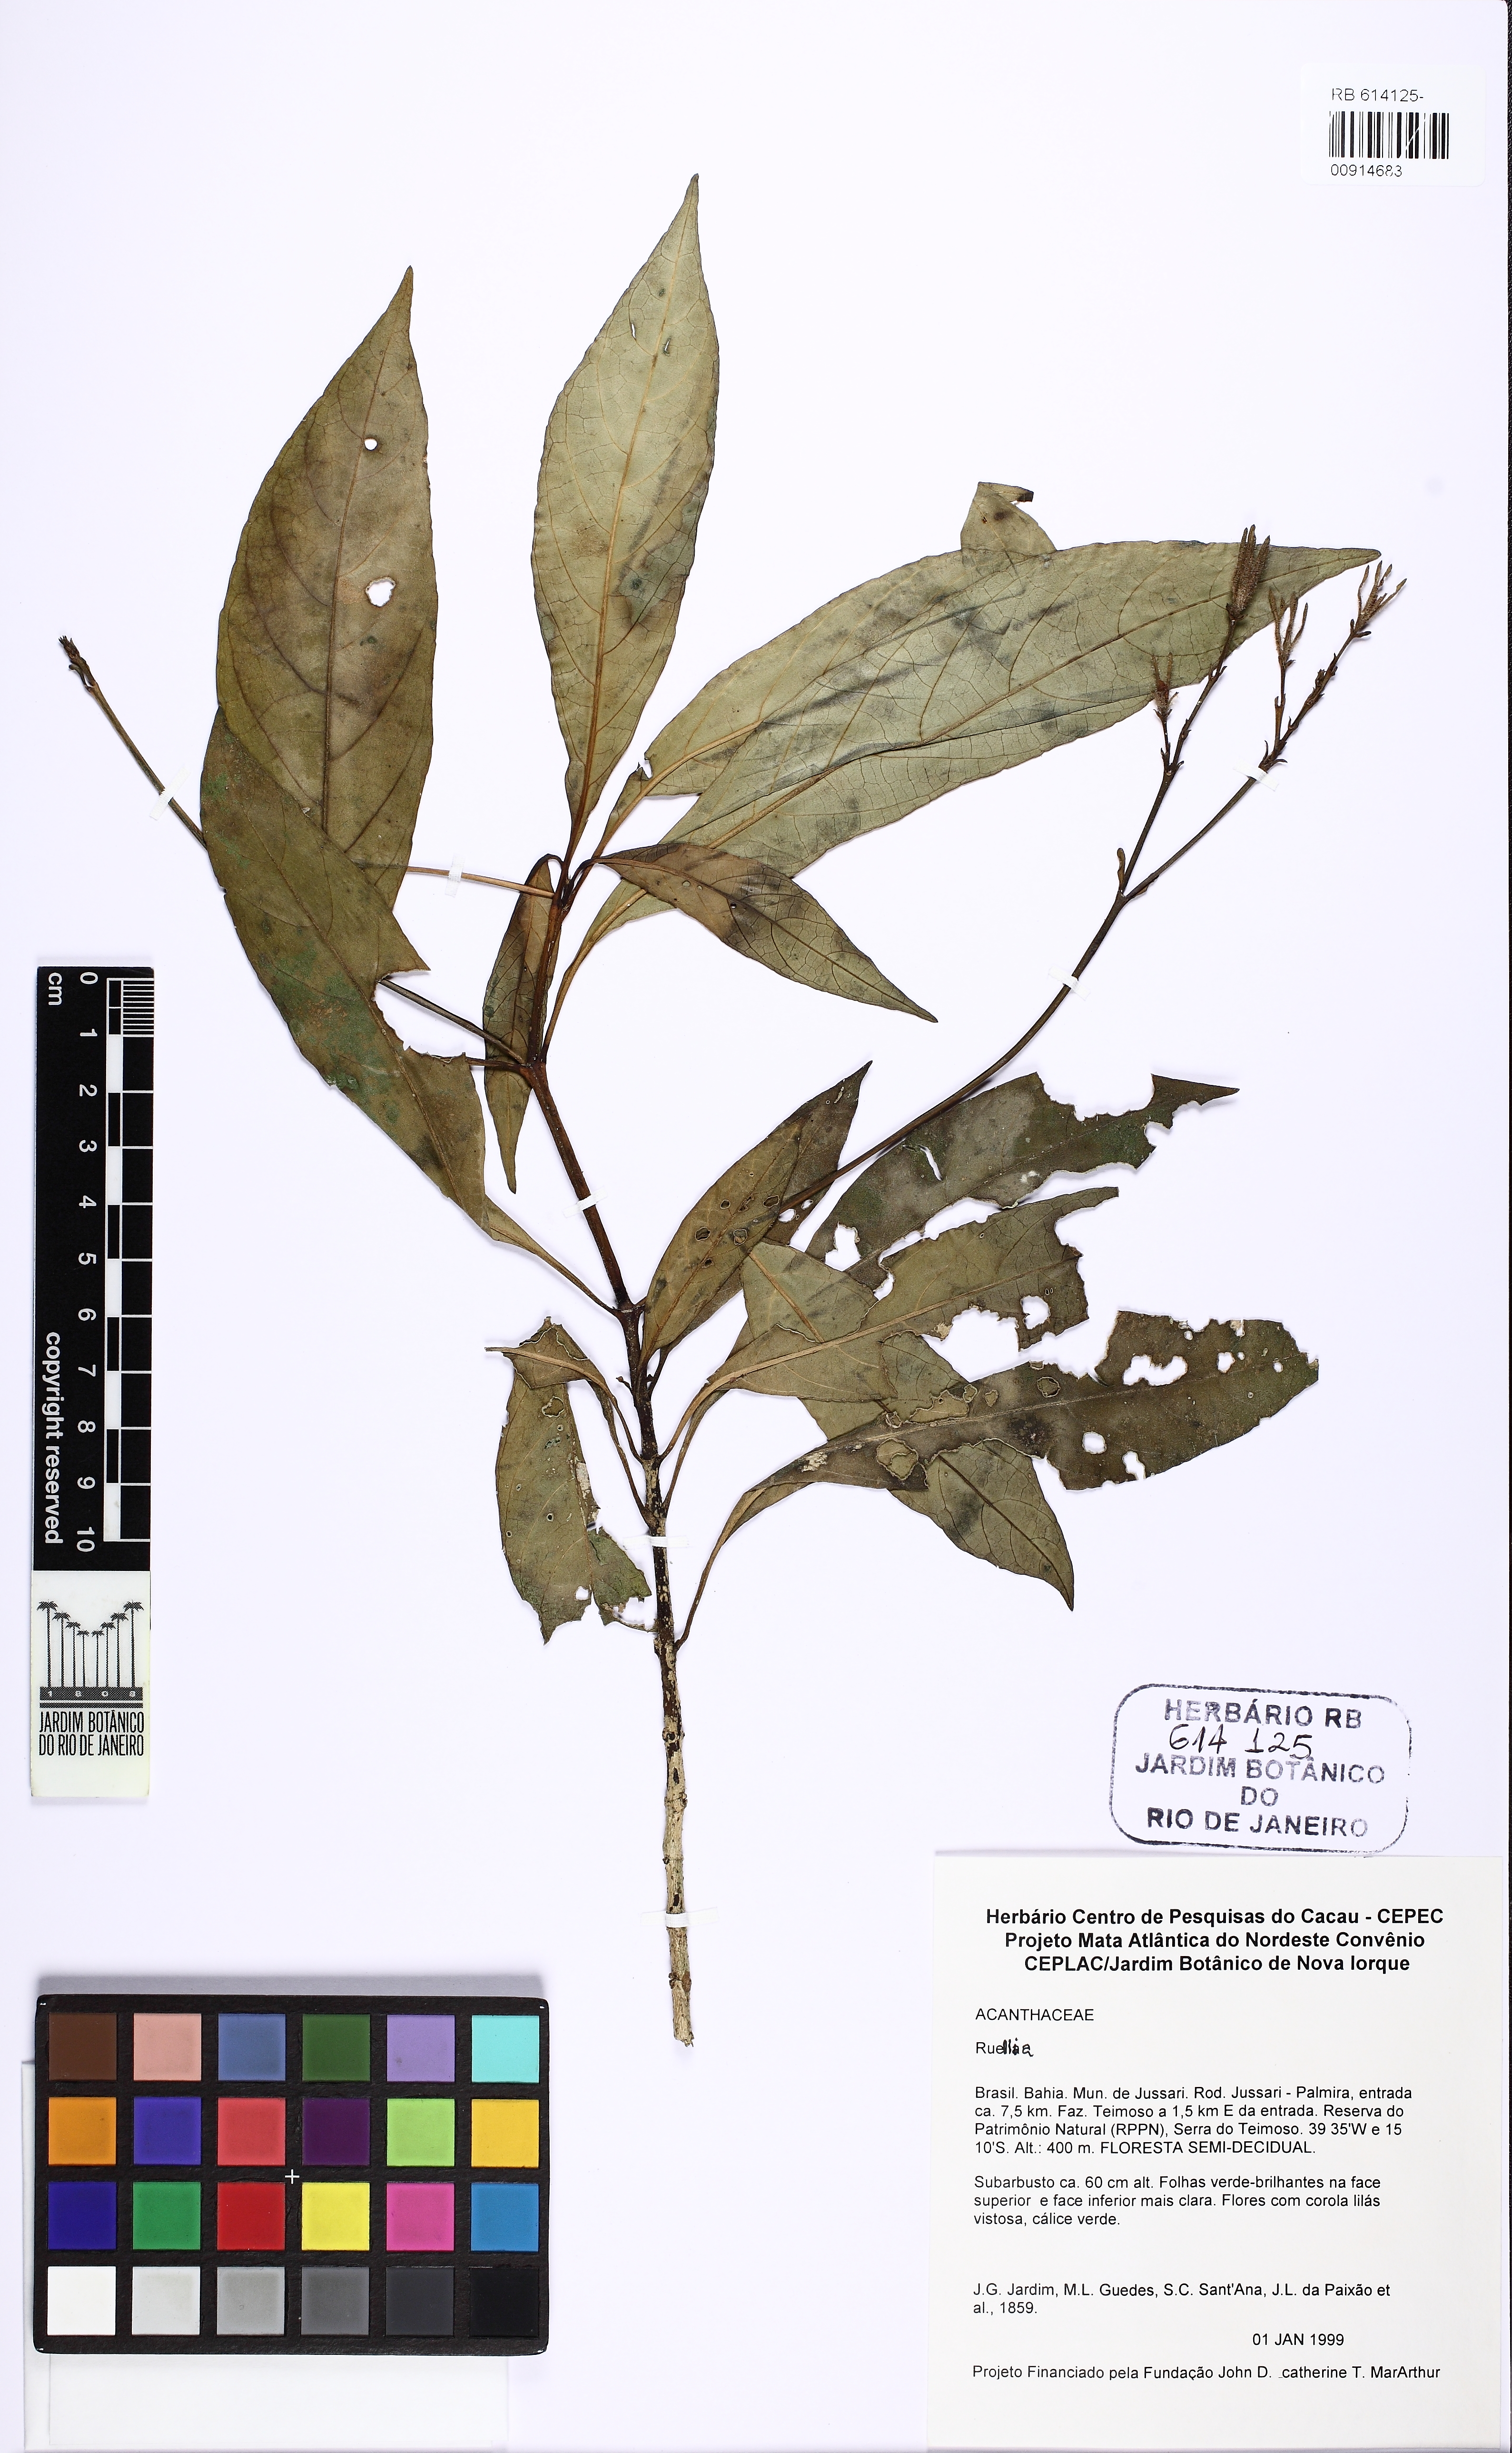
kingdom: Plantae
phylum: Tracheophyta
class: Magnoliopsida
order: Lamiales
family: Acanthaceae
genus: Ruellia
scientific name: Ruellia curviflora
